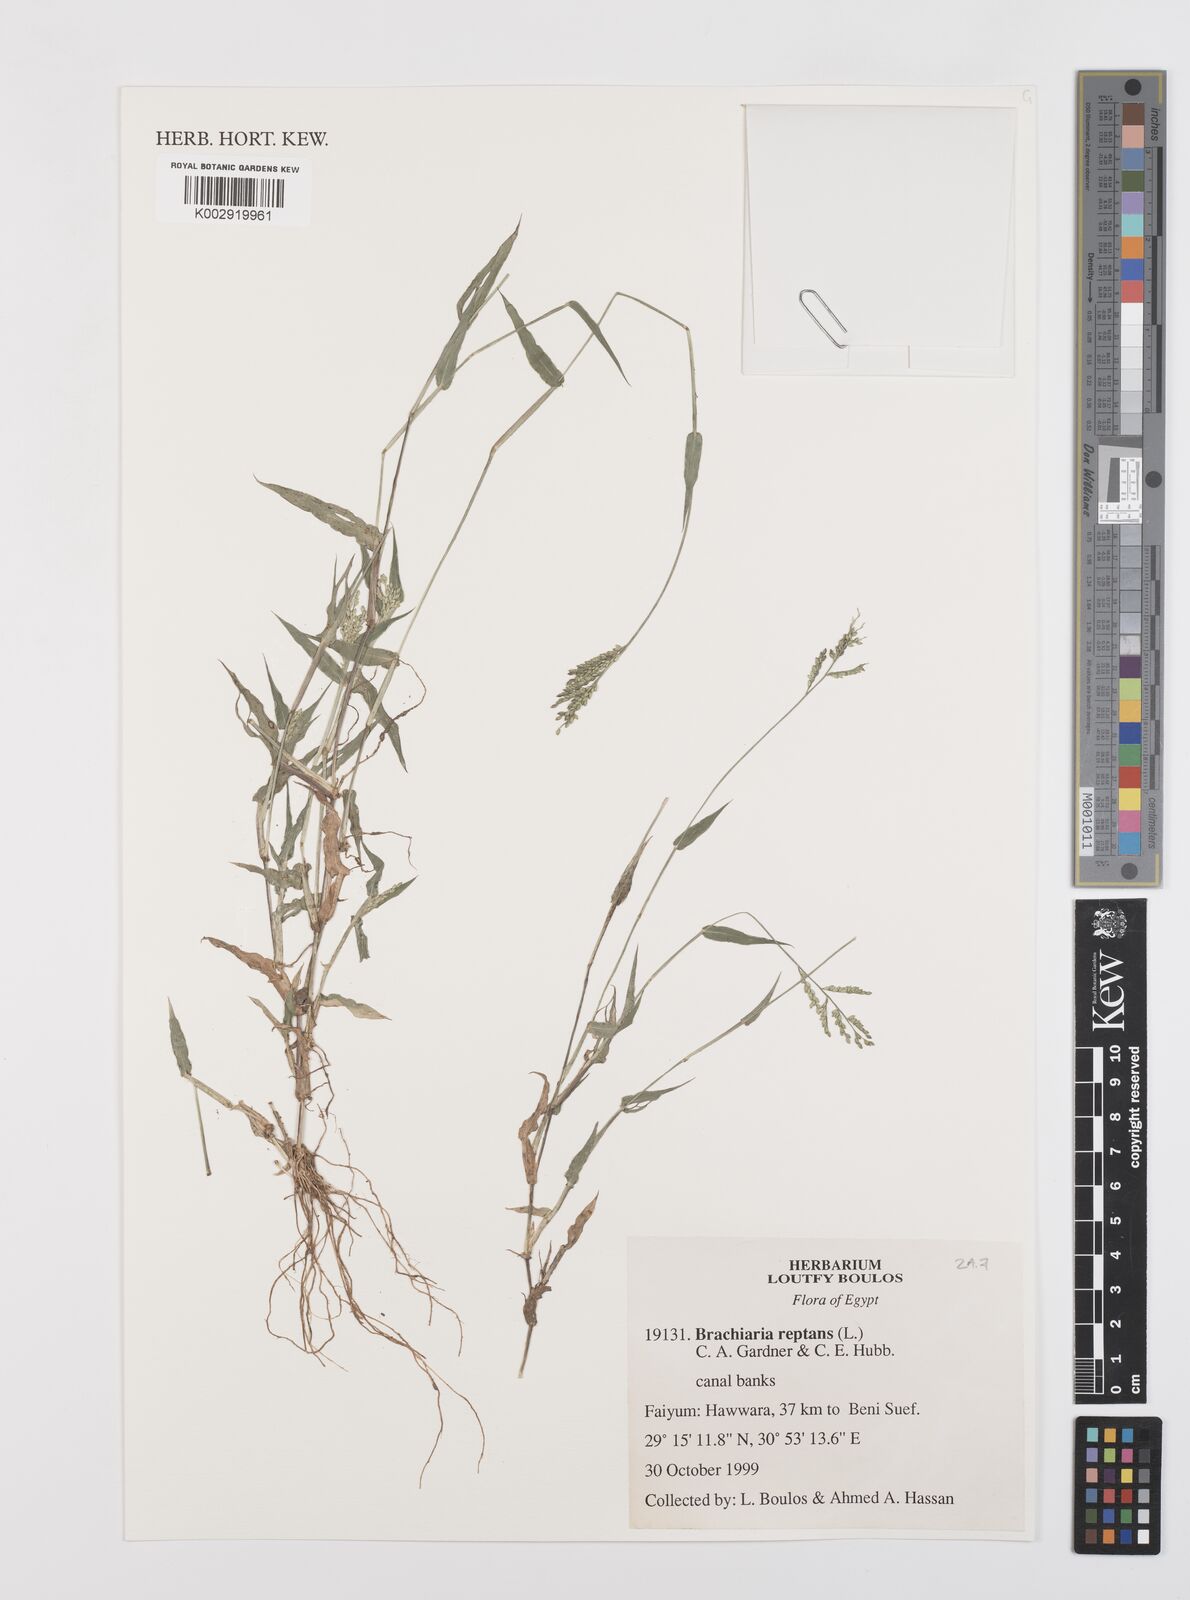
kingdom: Plantae
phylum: Tracheophyta
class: Liliopsida
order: Poales
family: Poaceae
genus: Urochloa
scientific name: Urochloa reptans
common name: Sprawling signalgrass
